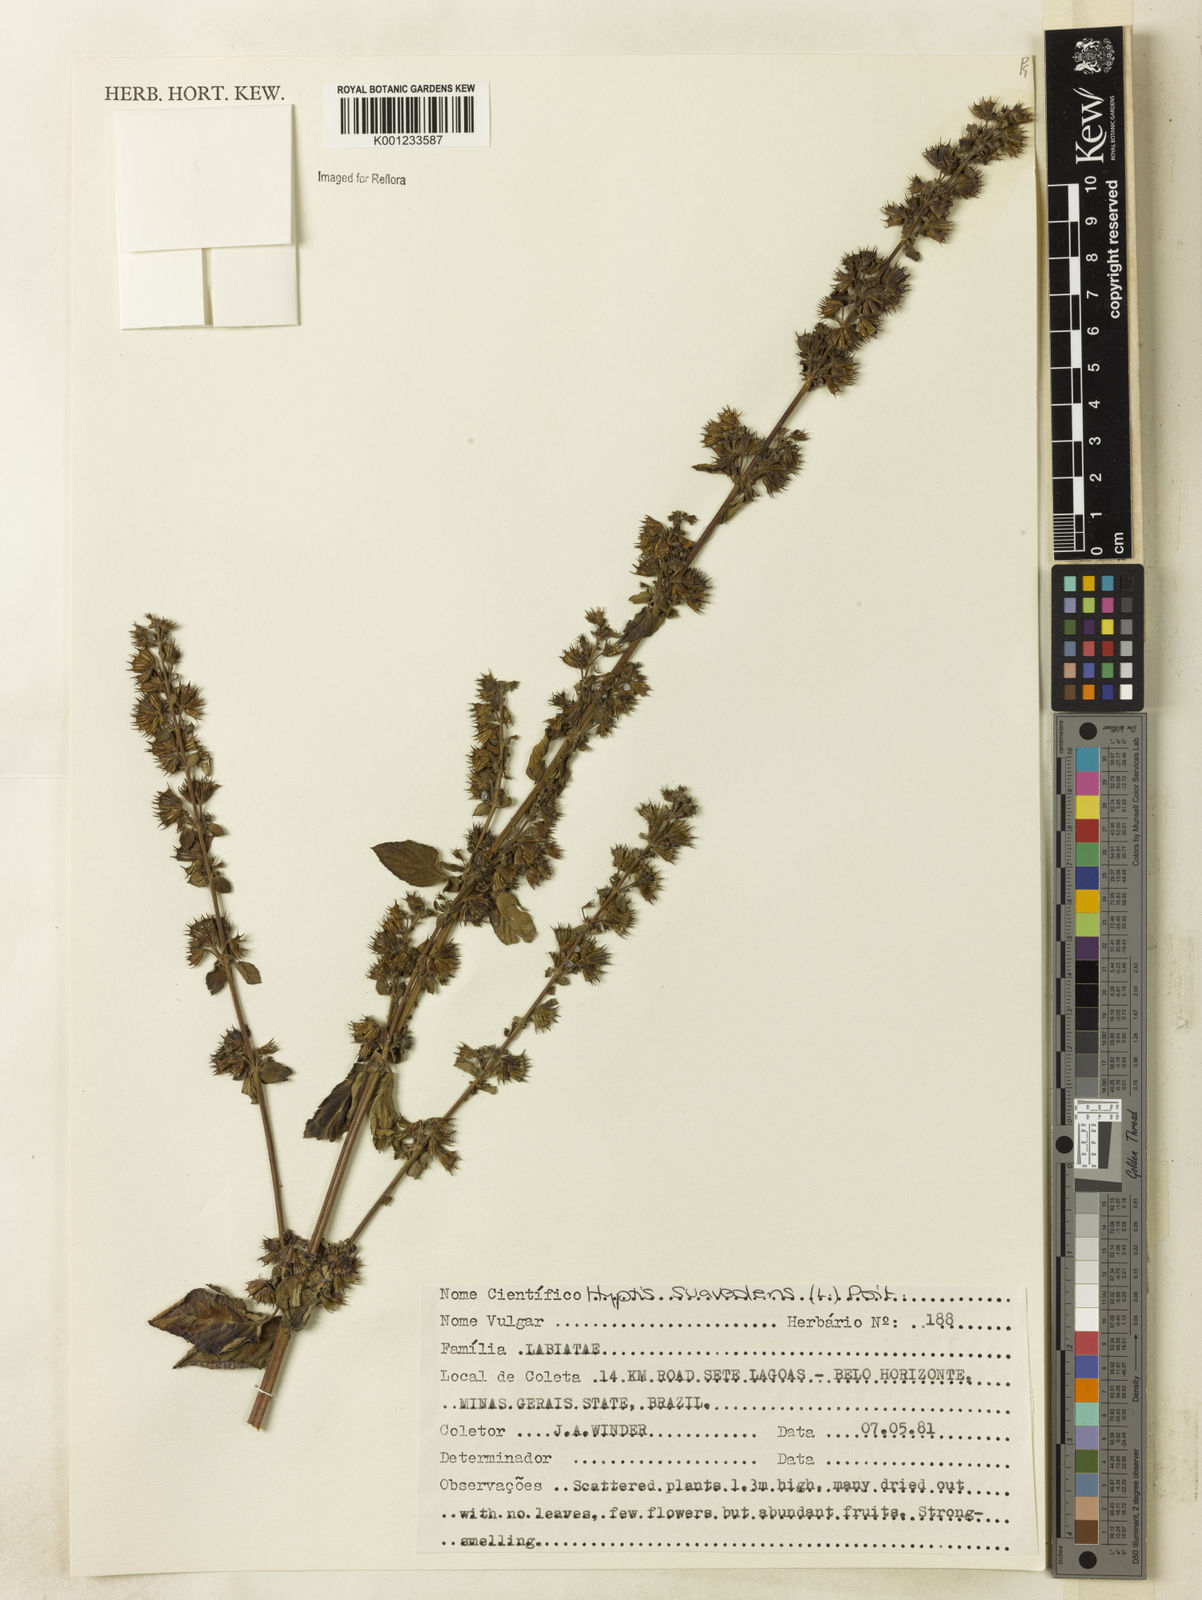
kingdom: Plantae
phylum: Tracheophyta
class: Magnoliopsida
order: Lamiales
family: Lamiaceae
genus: Mesosphaerum
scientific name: Mesosphaerum suaveolens
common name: Pignut
